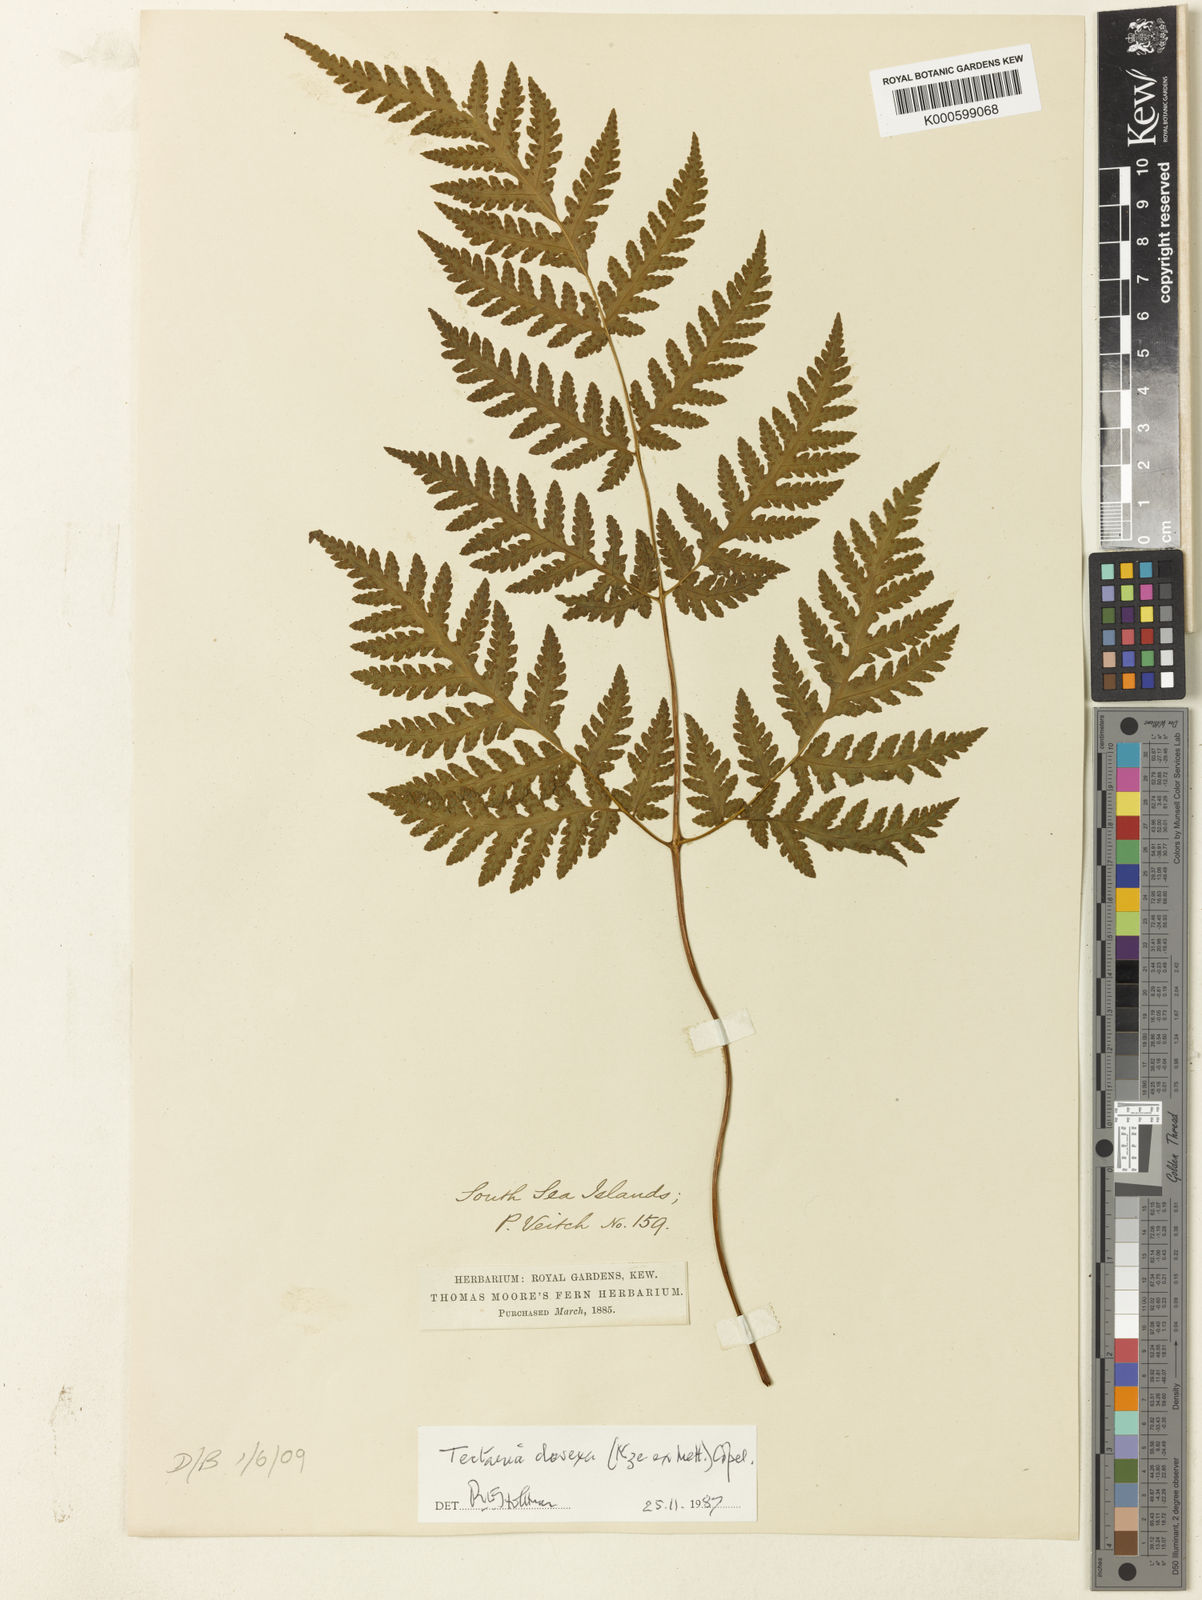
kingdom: Plantae
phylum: Tracheophyta
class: Polypodiopsida
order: Polypodiales
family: Tectariaceae
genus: Tectaria
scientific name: Tectaria membranacea
